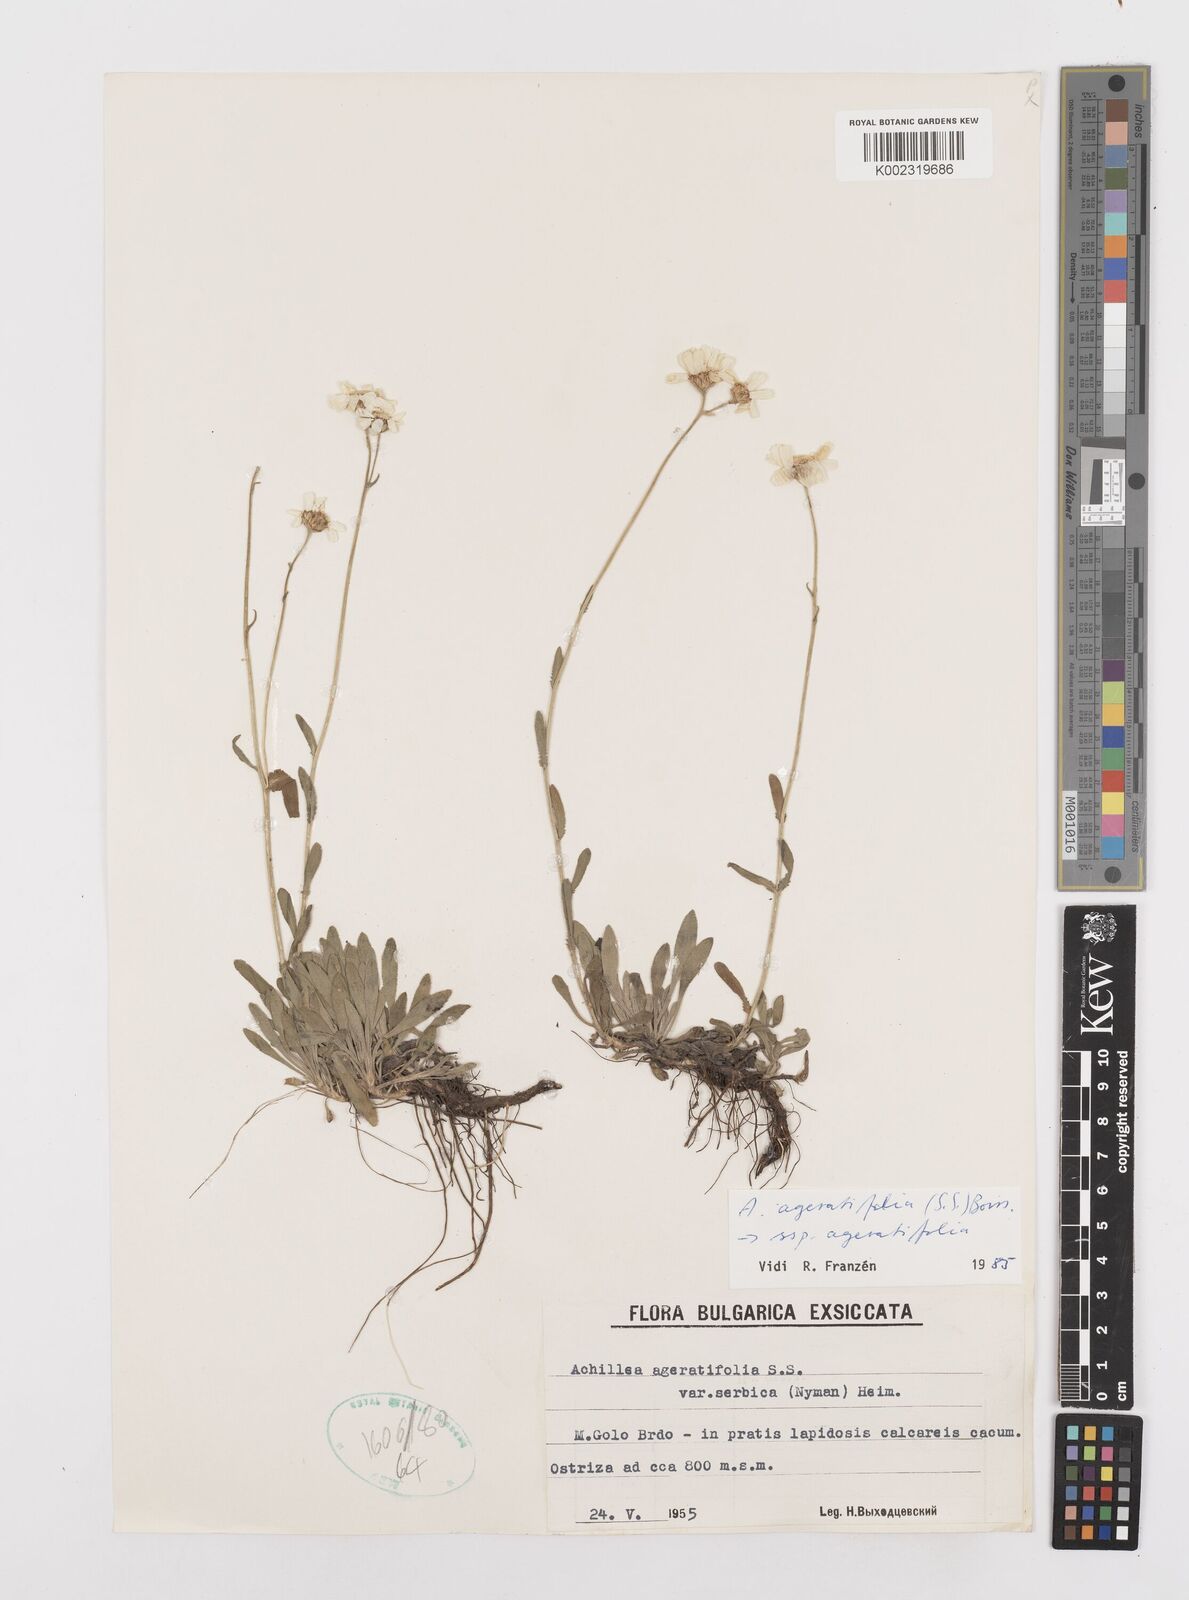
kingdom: Plantae
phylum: Tracheophyta
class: Magnoliopsida
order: Asterales
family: Asteraceae
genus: Achillea
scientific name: Achillea ageratifolia
